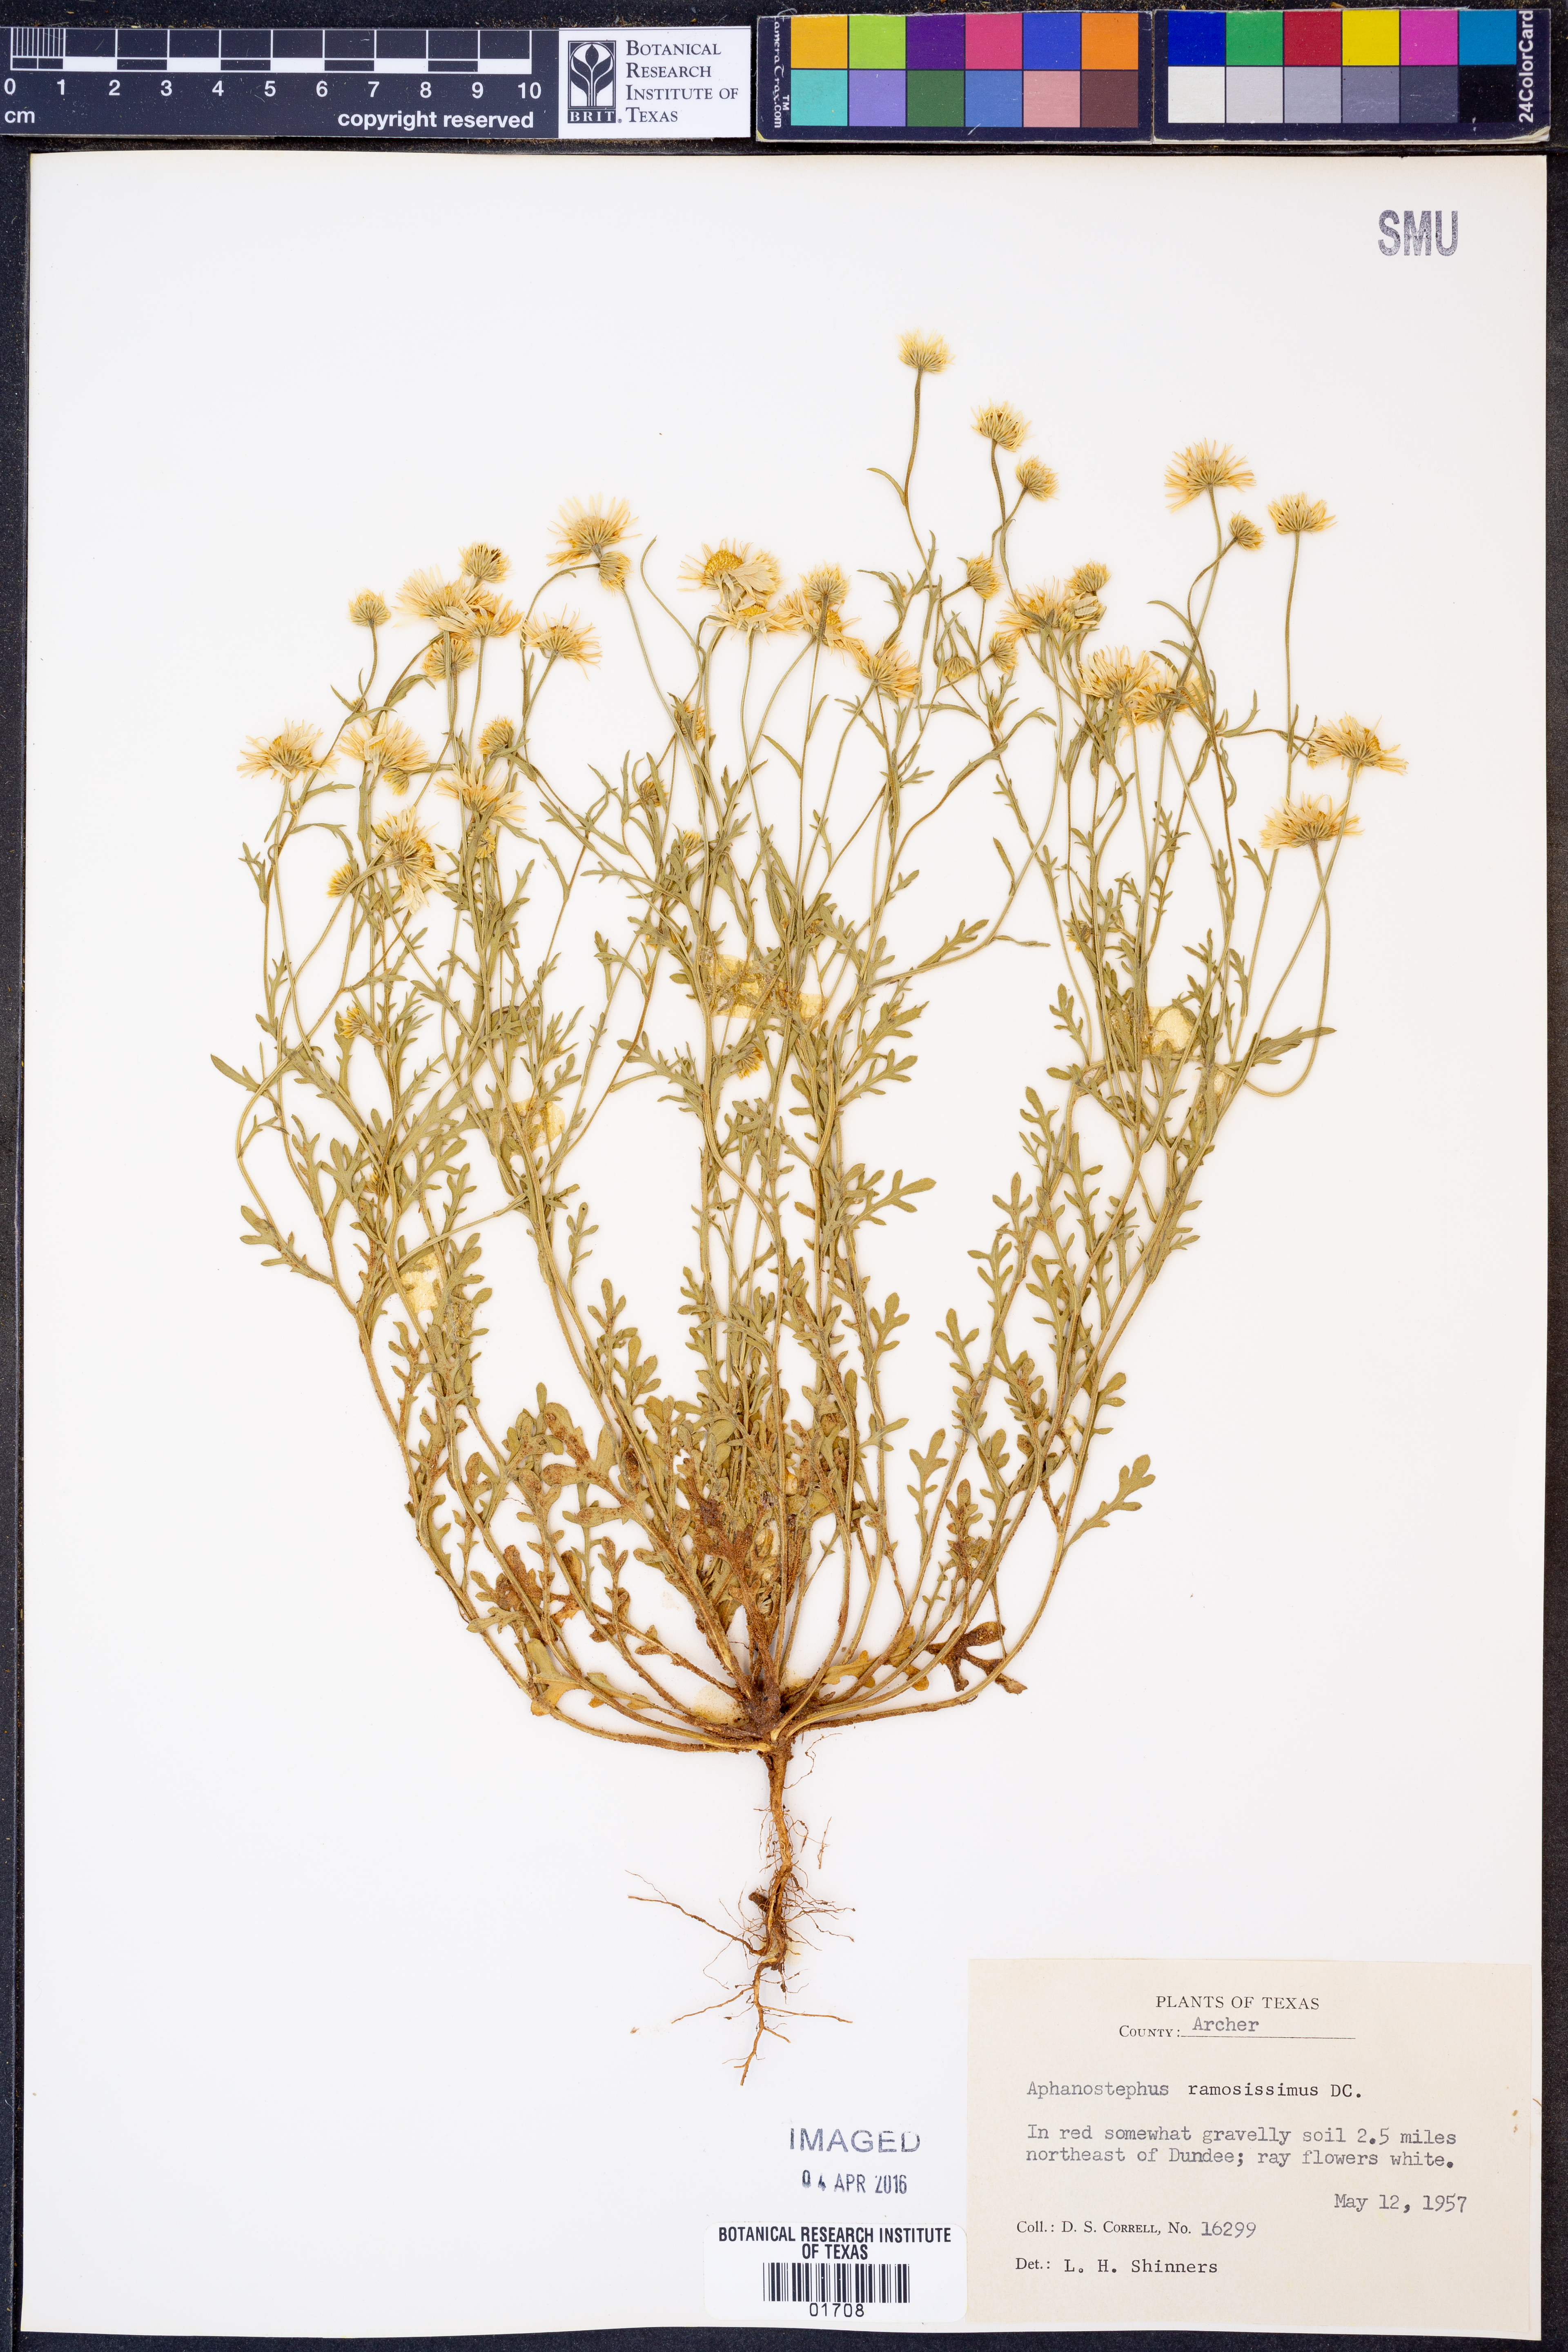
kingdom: Plantae
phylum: Tracheophyta
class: Magnoliopsida
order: Asterales
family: Asteraceae
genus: Aphanostephus
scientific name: Aphanostephus ramosissimus
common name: Plains lazy daisy
